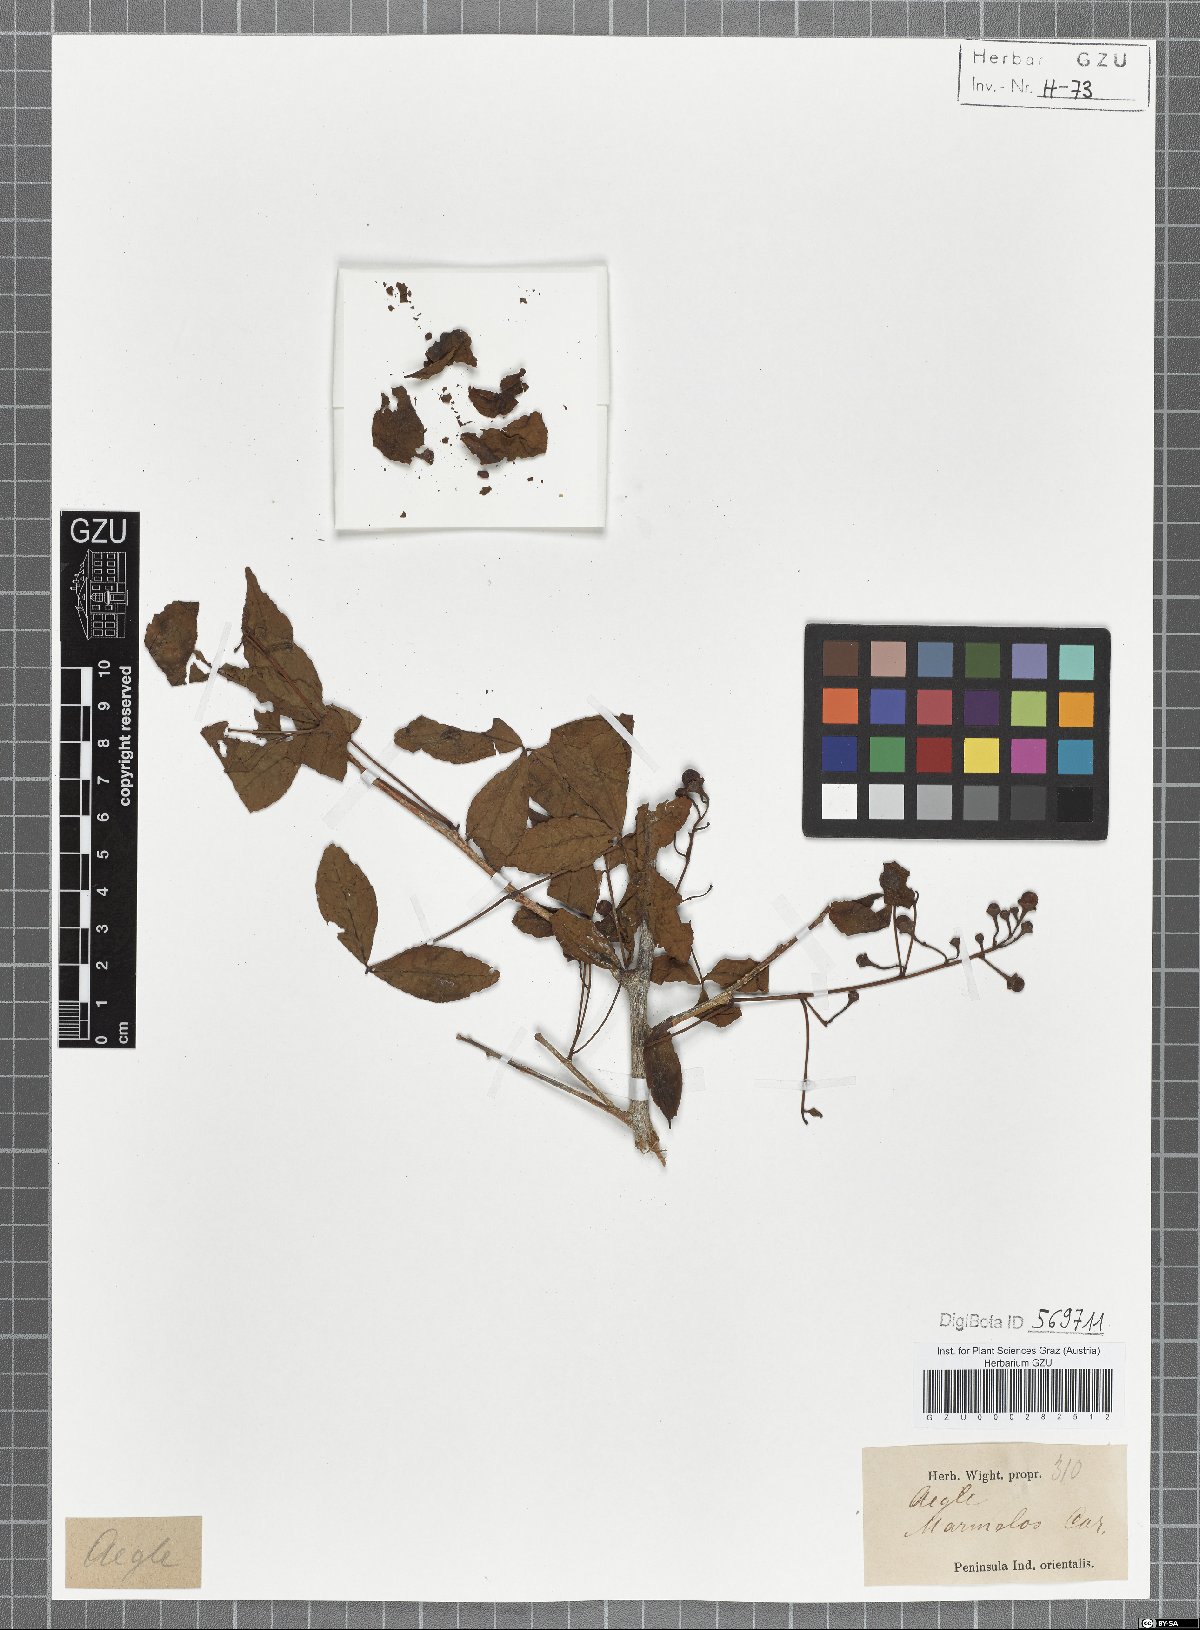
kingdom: Plantae
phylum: Tracheophyta
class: Magnoliopsida
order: Sapindales
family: Rutaceae
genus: Aegle
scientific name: Aegle marmelos
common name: Bael
